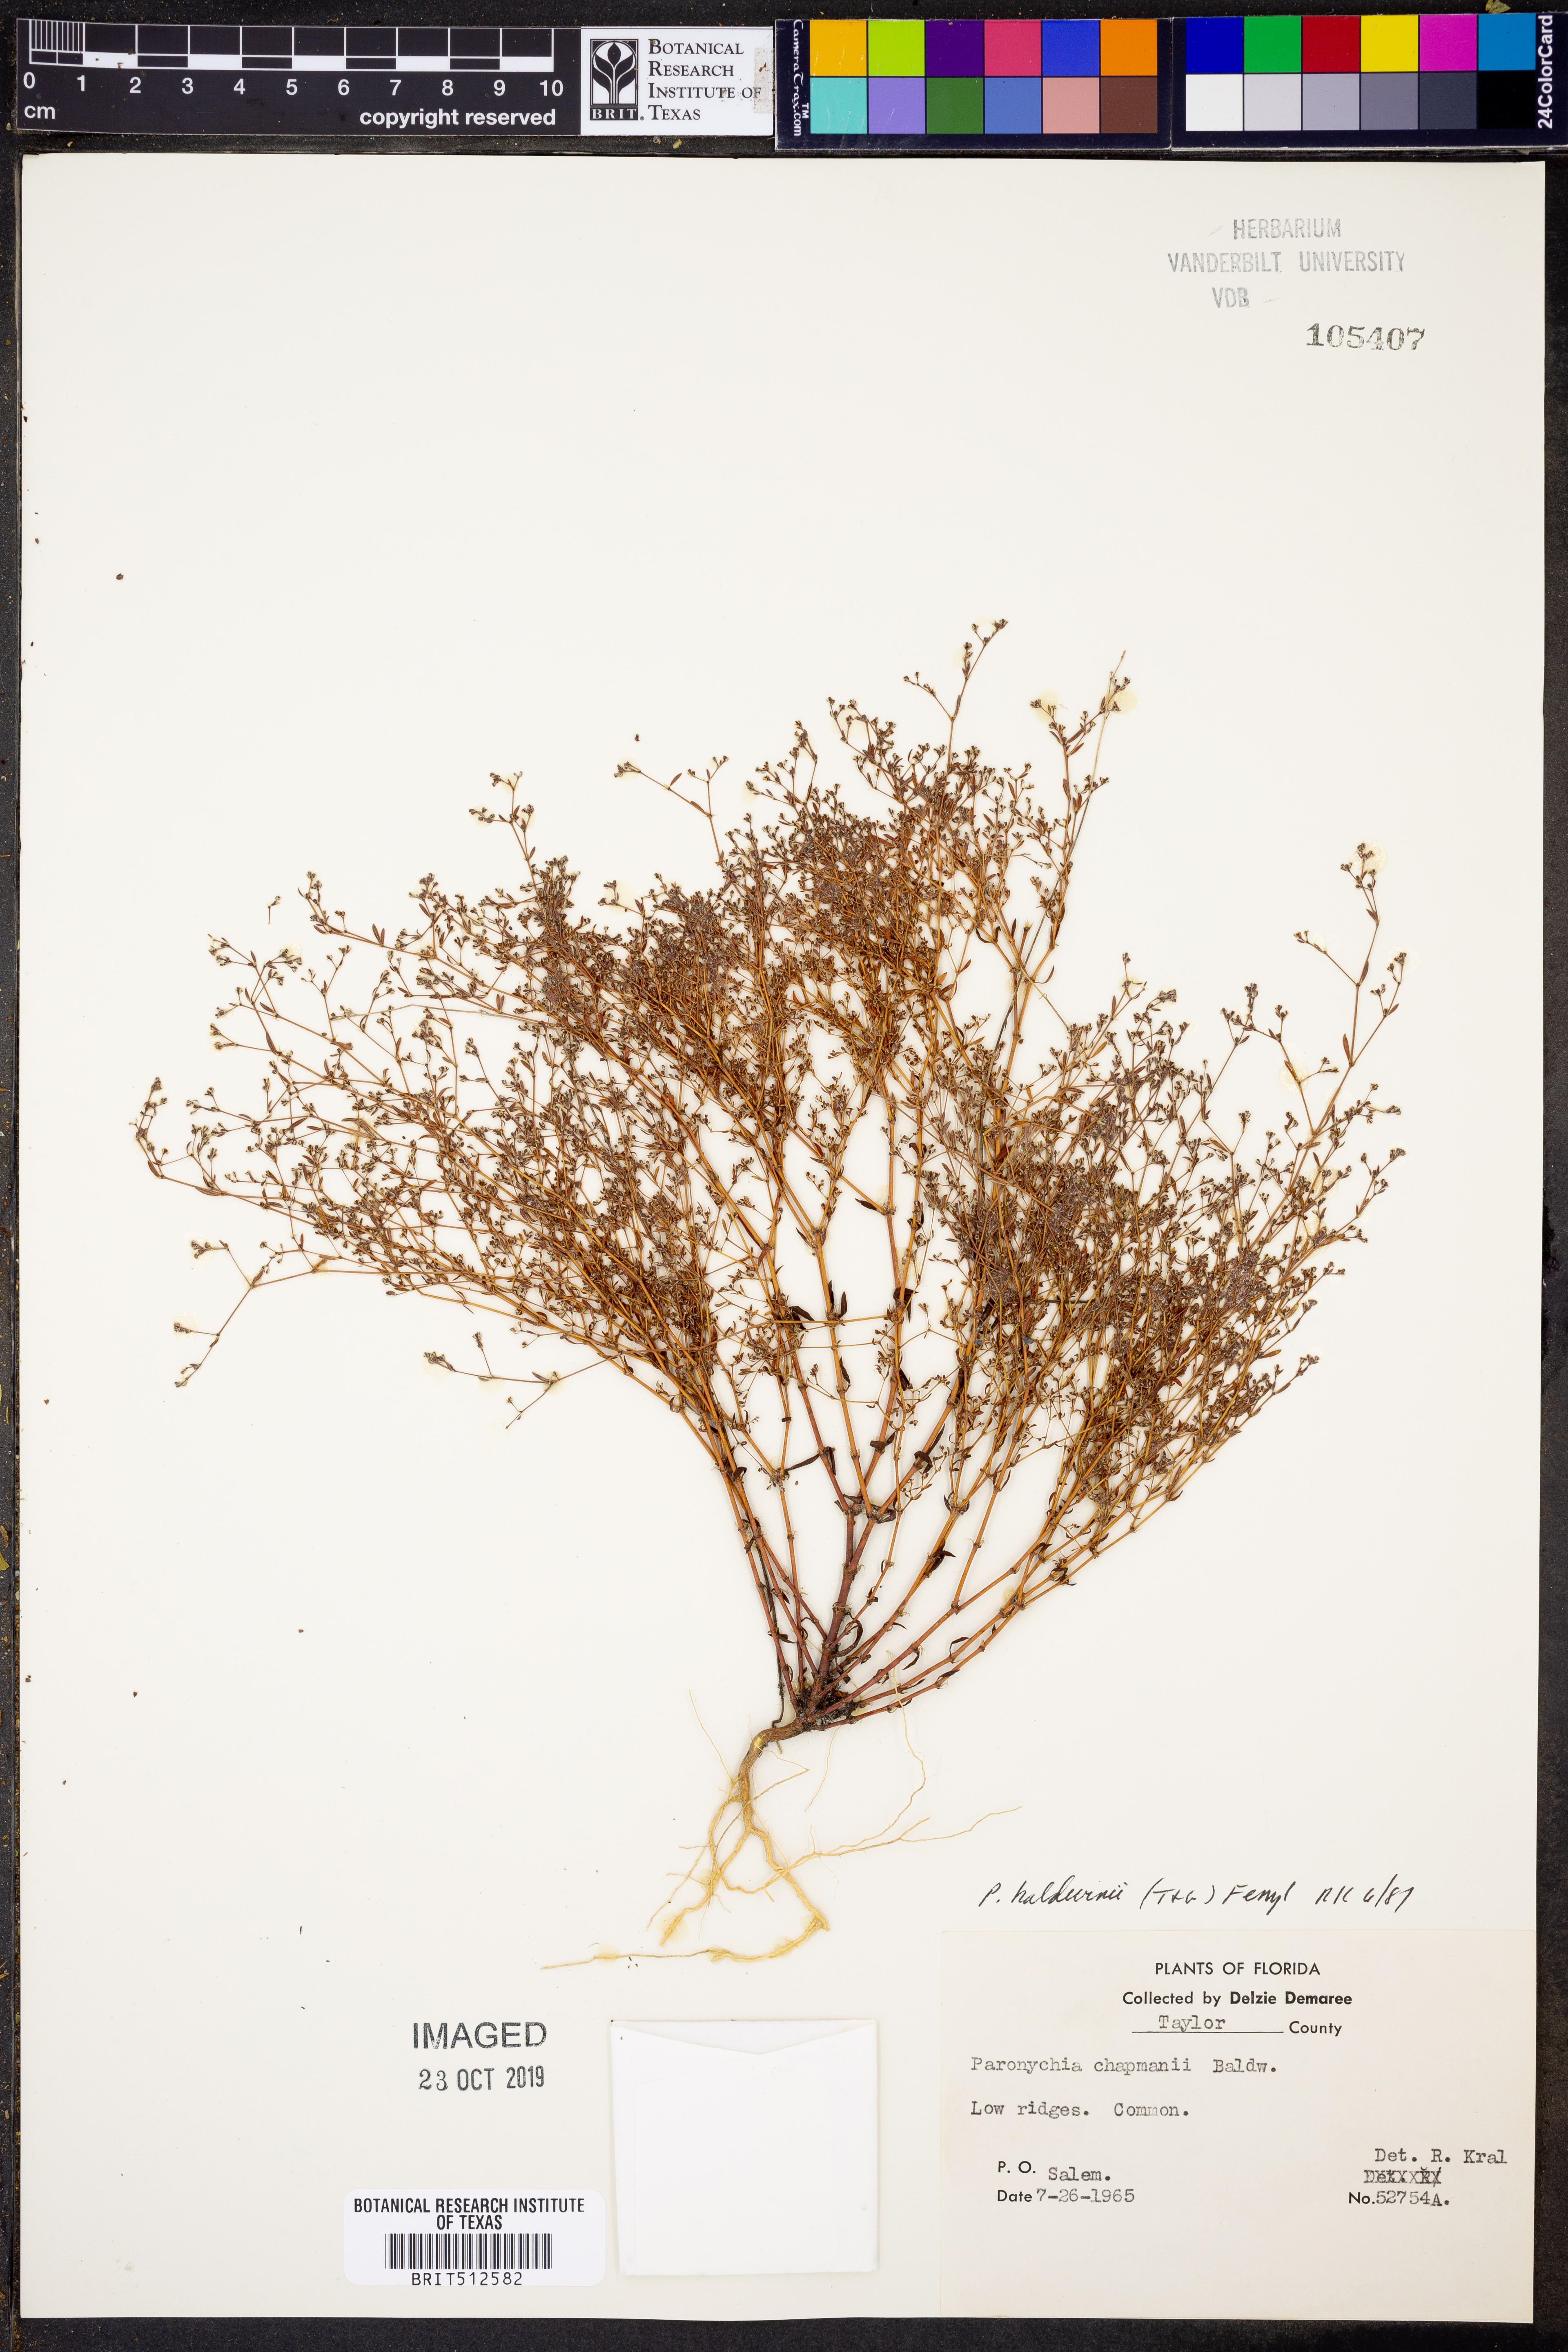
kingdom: Plantae
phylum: Tracheophyta
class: Magnoliopsida
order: Caryophyllales
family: Caryophyllaceae
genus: Paronychia
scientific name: Paronychia baldwinii
